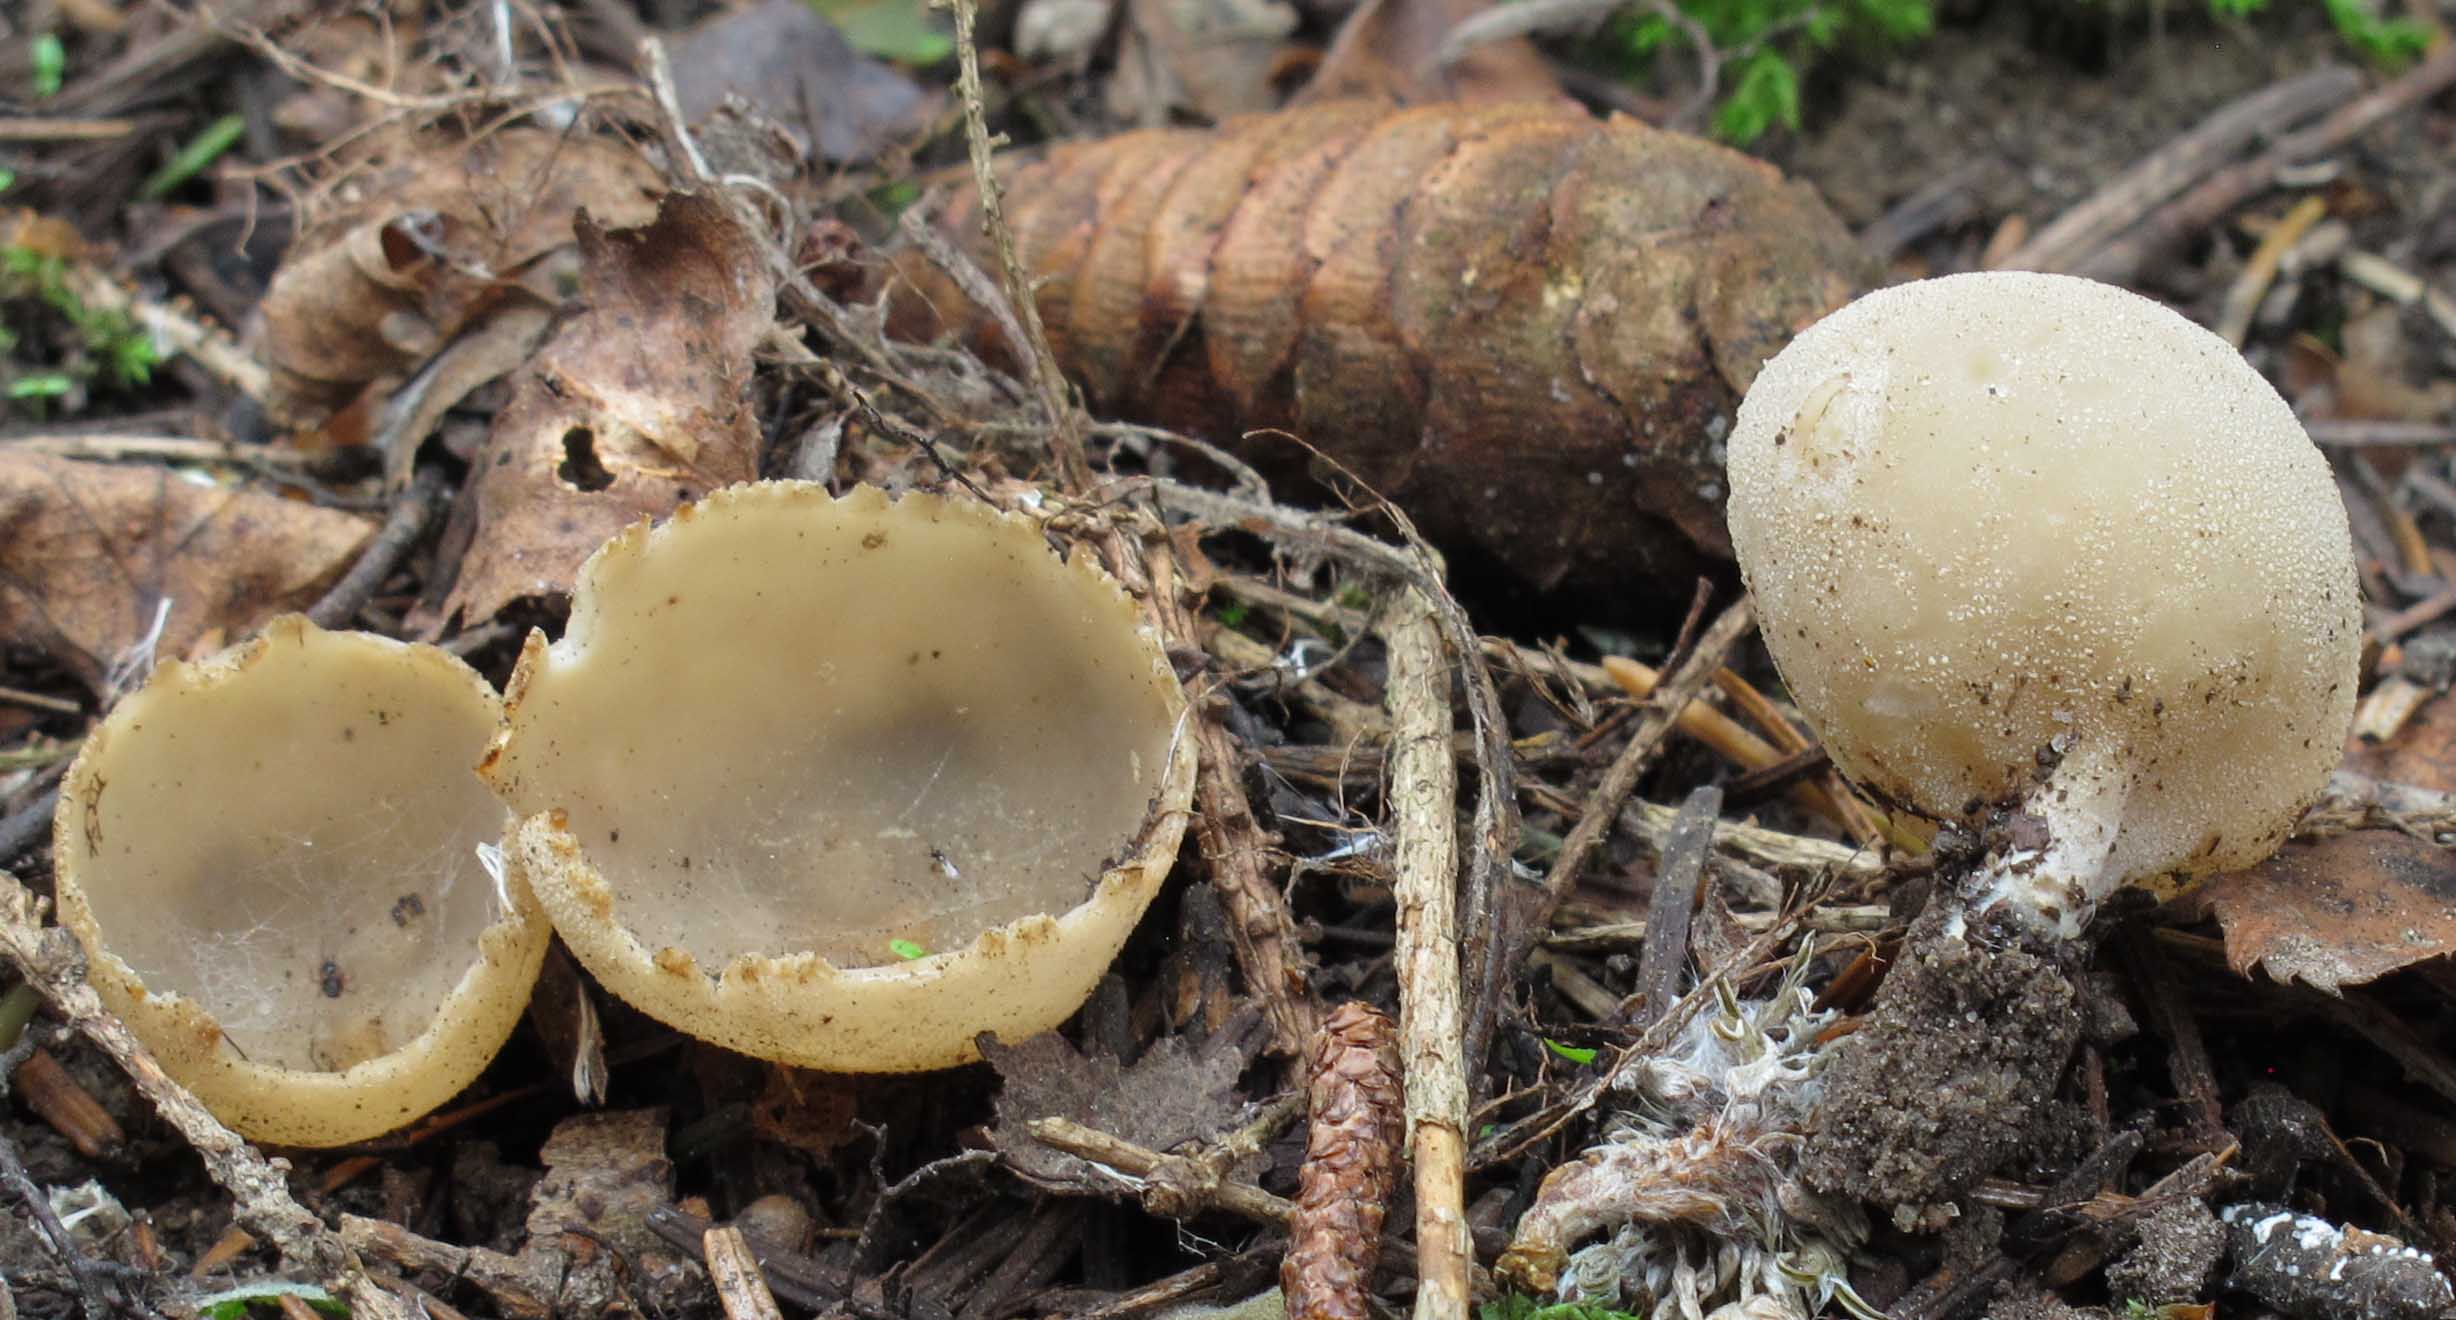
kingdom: Fungi
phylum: Ascomycota
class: Pezizomycetes
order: Pezizales
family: Pyronemataceae
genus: Tarzetta
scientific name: Tarzetta cupularis
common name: gulbrun pokalbæger
